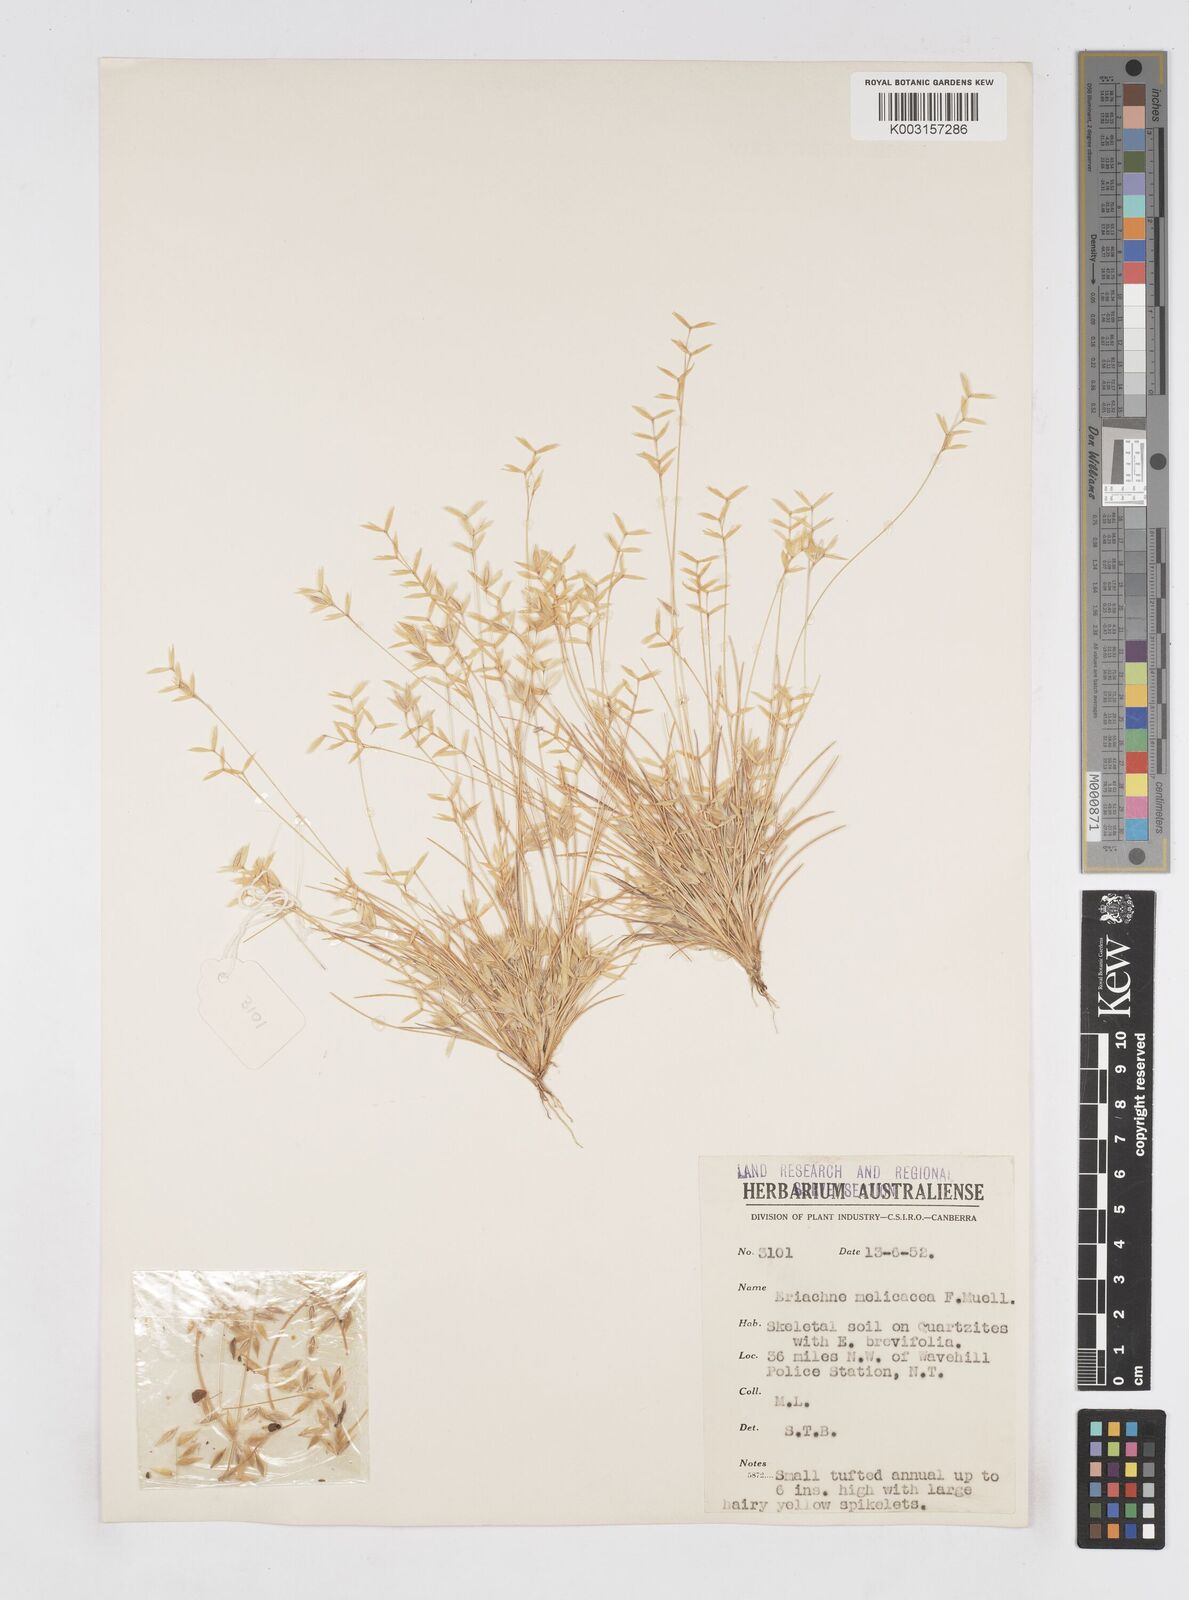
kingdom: Plantae
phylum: Tracheophyta
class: Liliopsida
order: Poales
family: Poaceae
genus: Eriachne
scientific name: Eriachne melicacea
